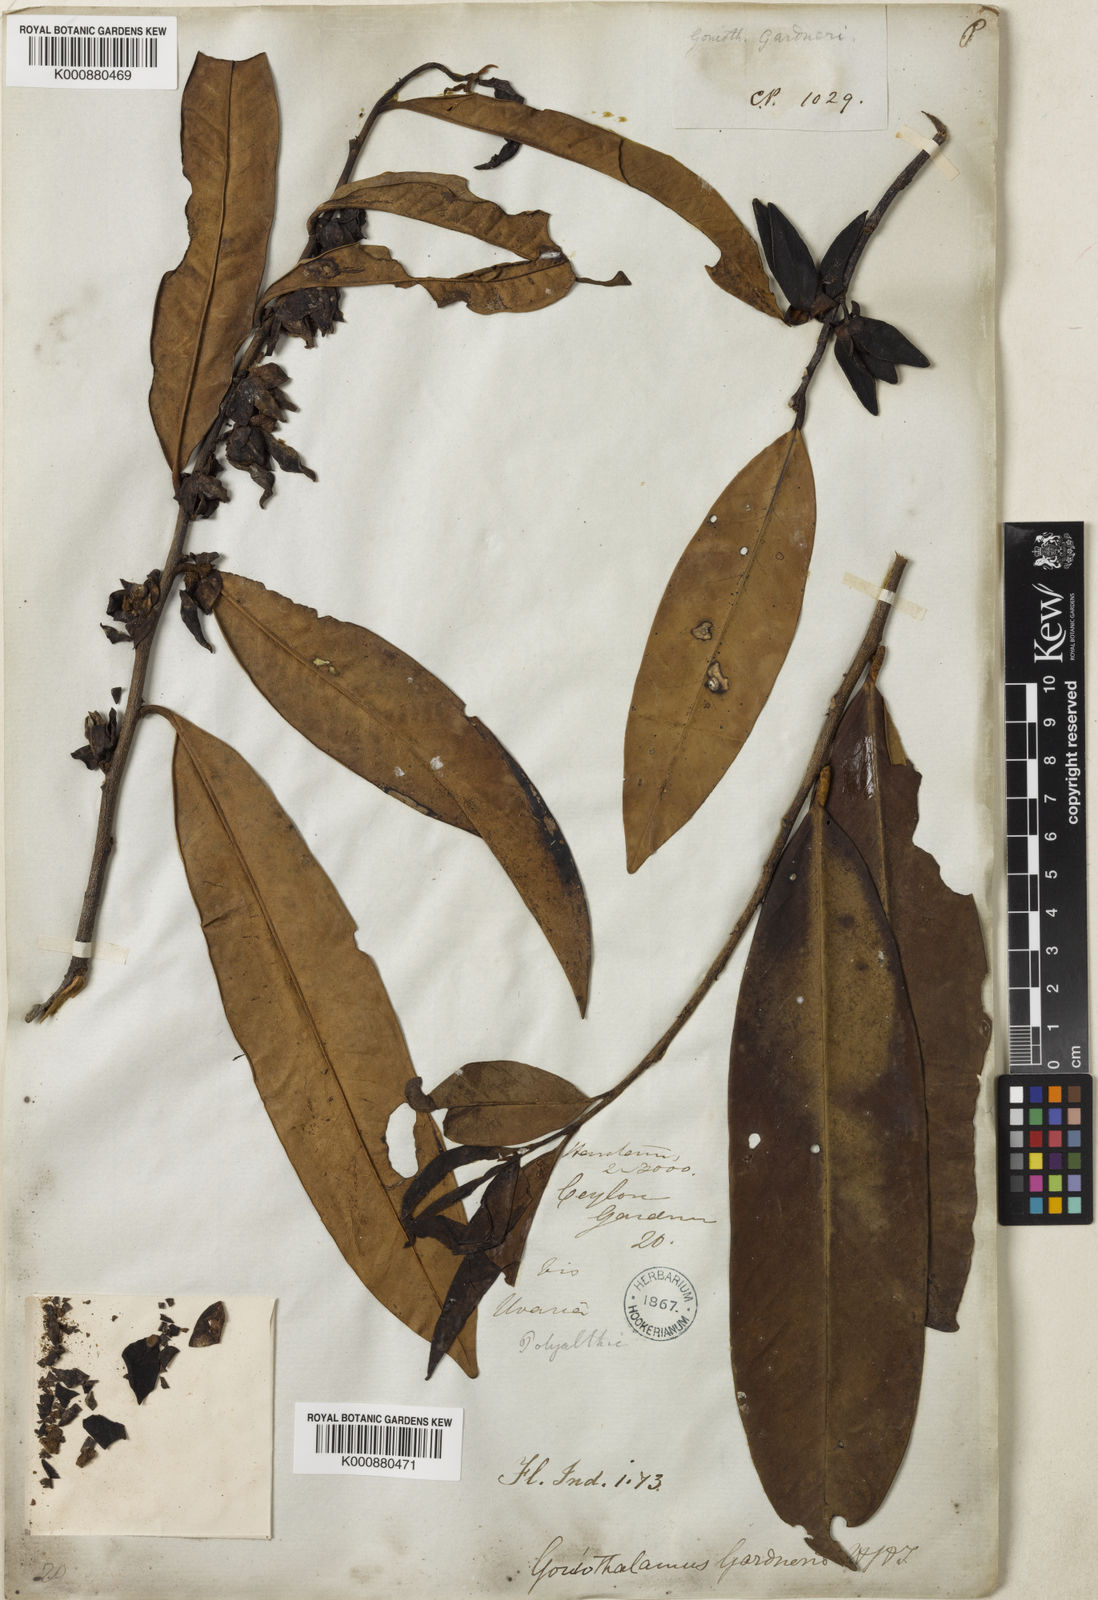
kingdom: Plantae
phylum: Tracheophyta
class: Magnoliopsida
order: Magnoliales
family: Annonaceae
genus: Goniothalamus
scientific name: Goniothalamus gardneri
